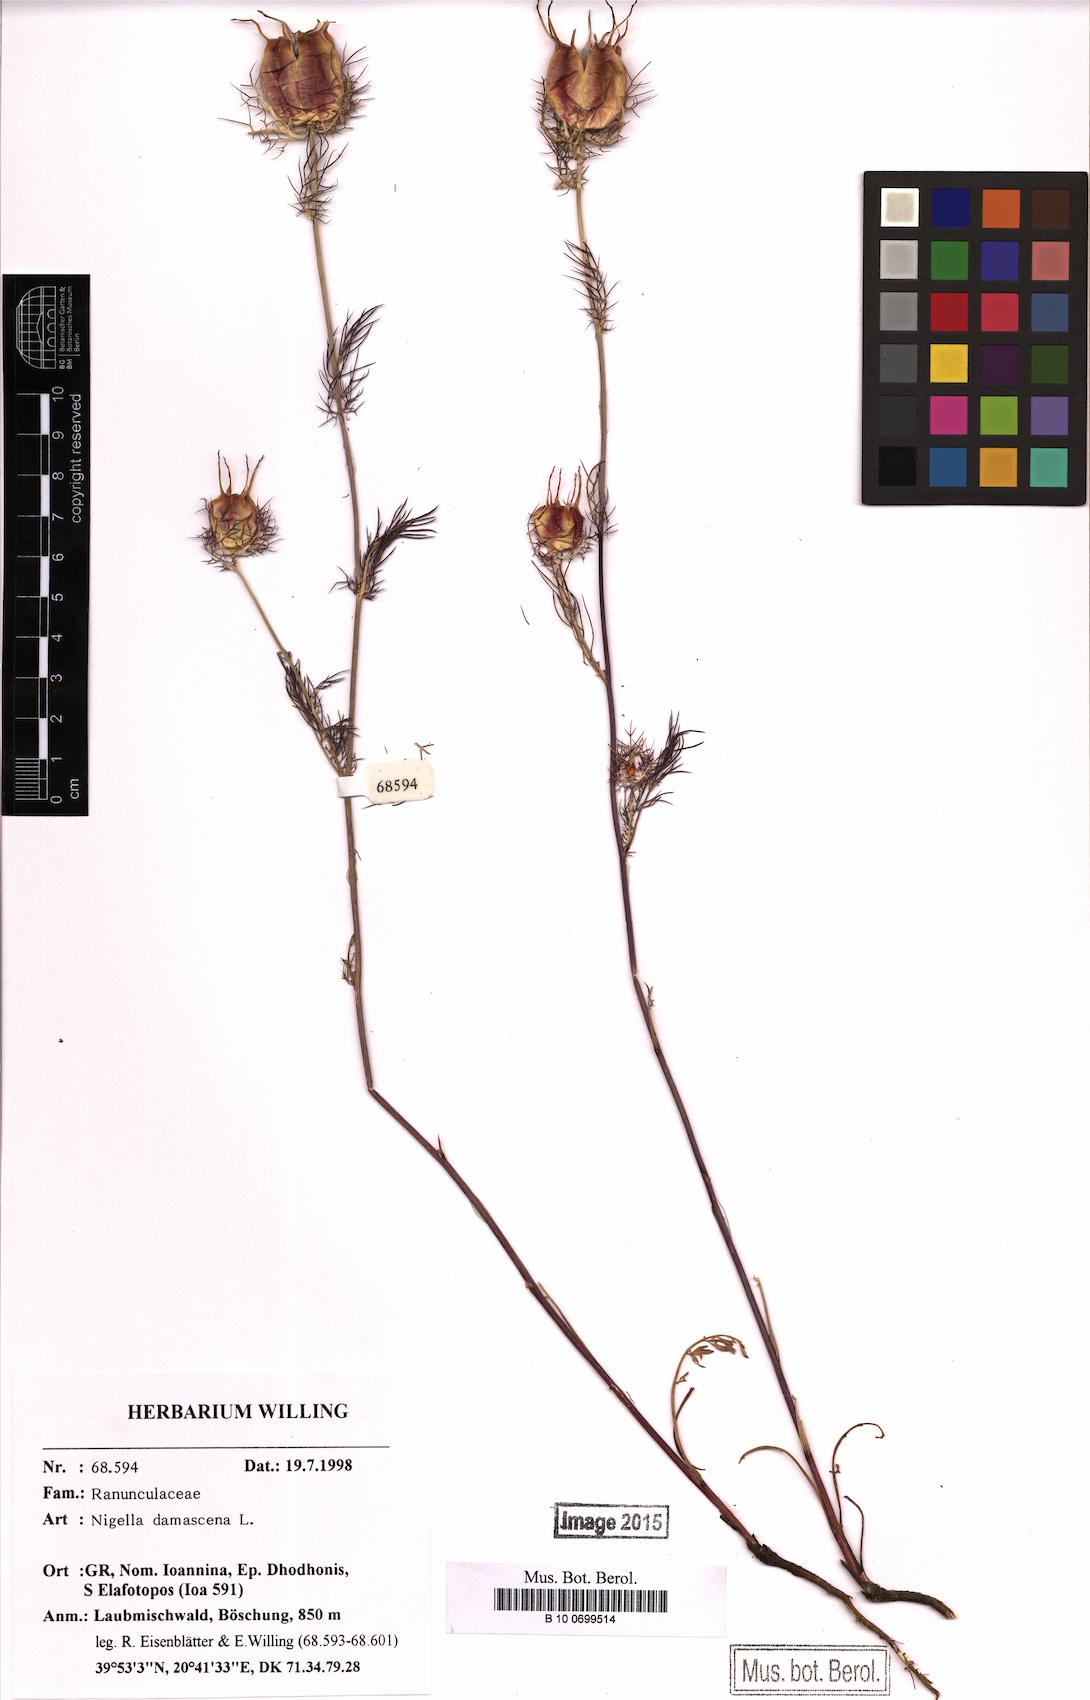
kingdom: Plantae
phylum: Tracheophyta
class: Magnoliopsida
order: Ranunculales
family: Ranunculaceae
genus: Nigella
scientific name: Nigella damascena
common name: Love-in-a-mist
